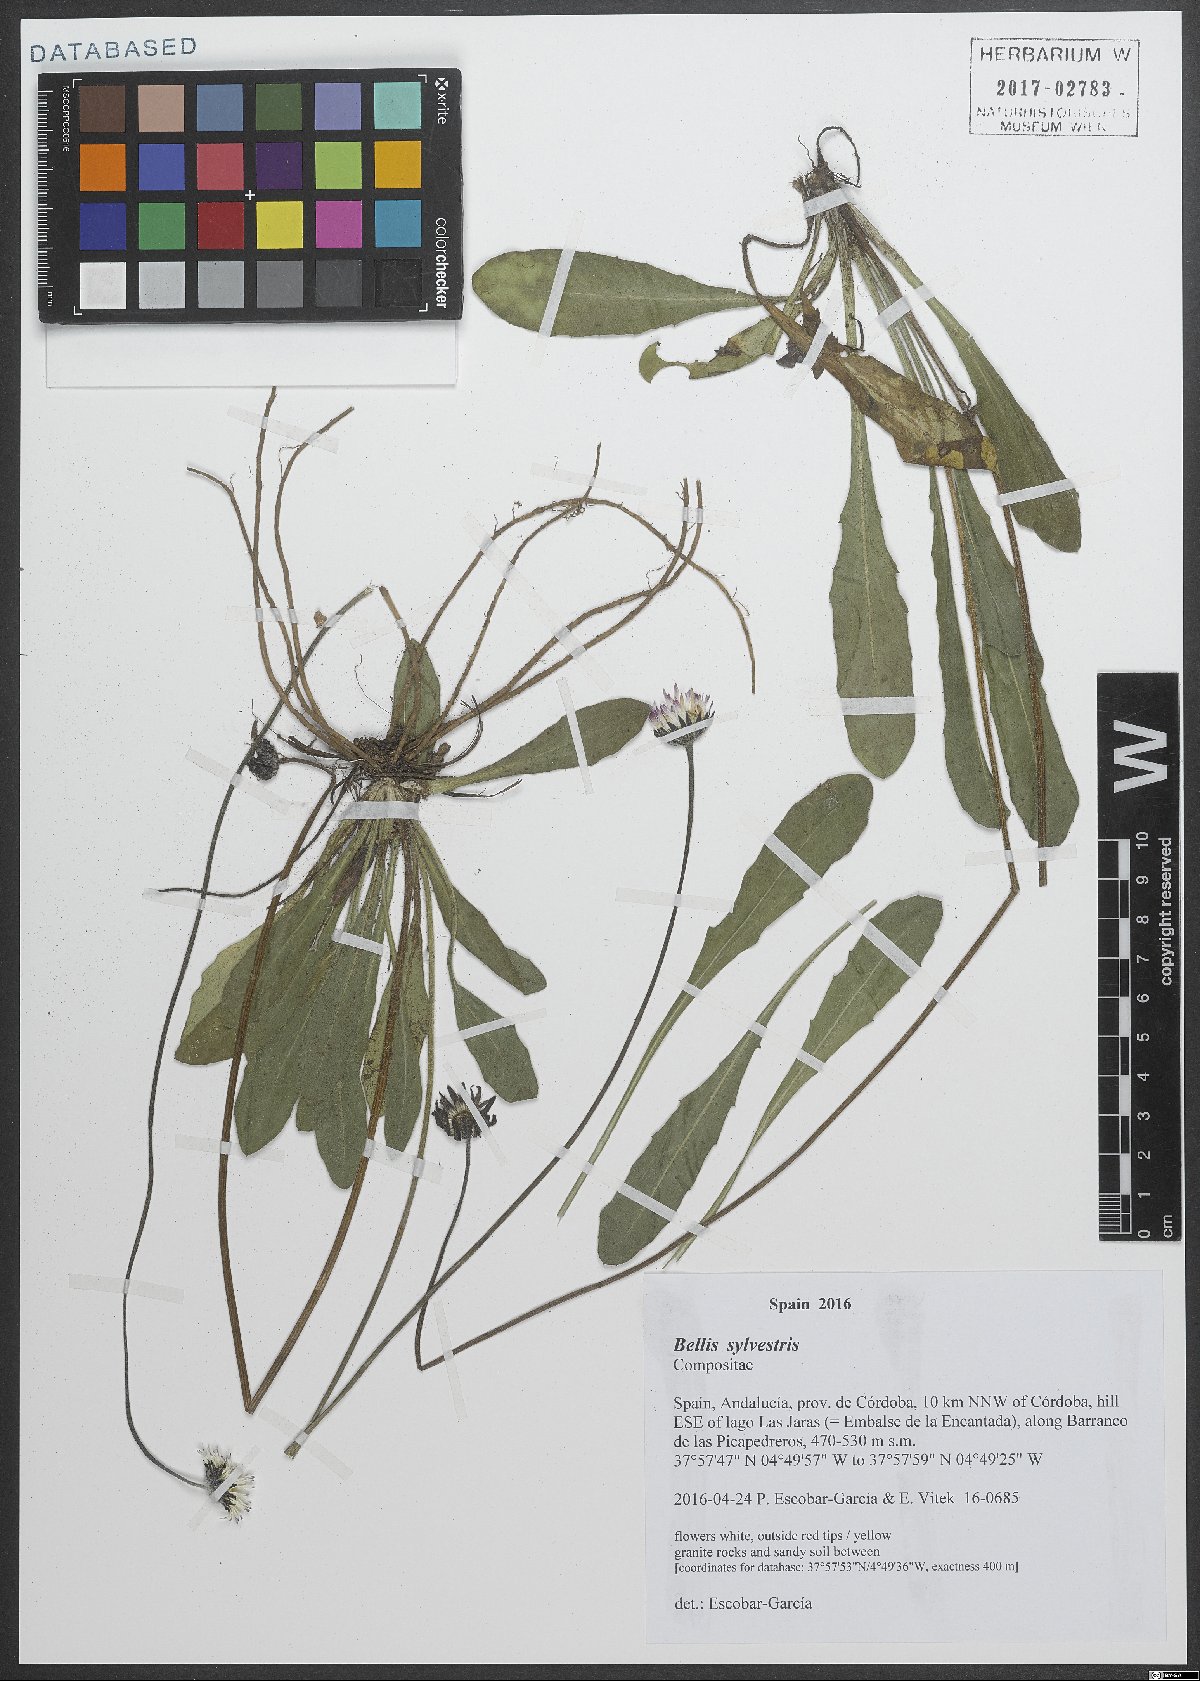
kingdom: Plantae
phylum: Tracheophyta
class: Magnoliopsida
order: Asterales
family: Asteraceae
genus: Bellis
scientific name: Bellis sylvestris
